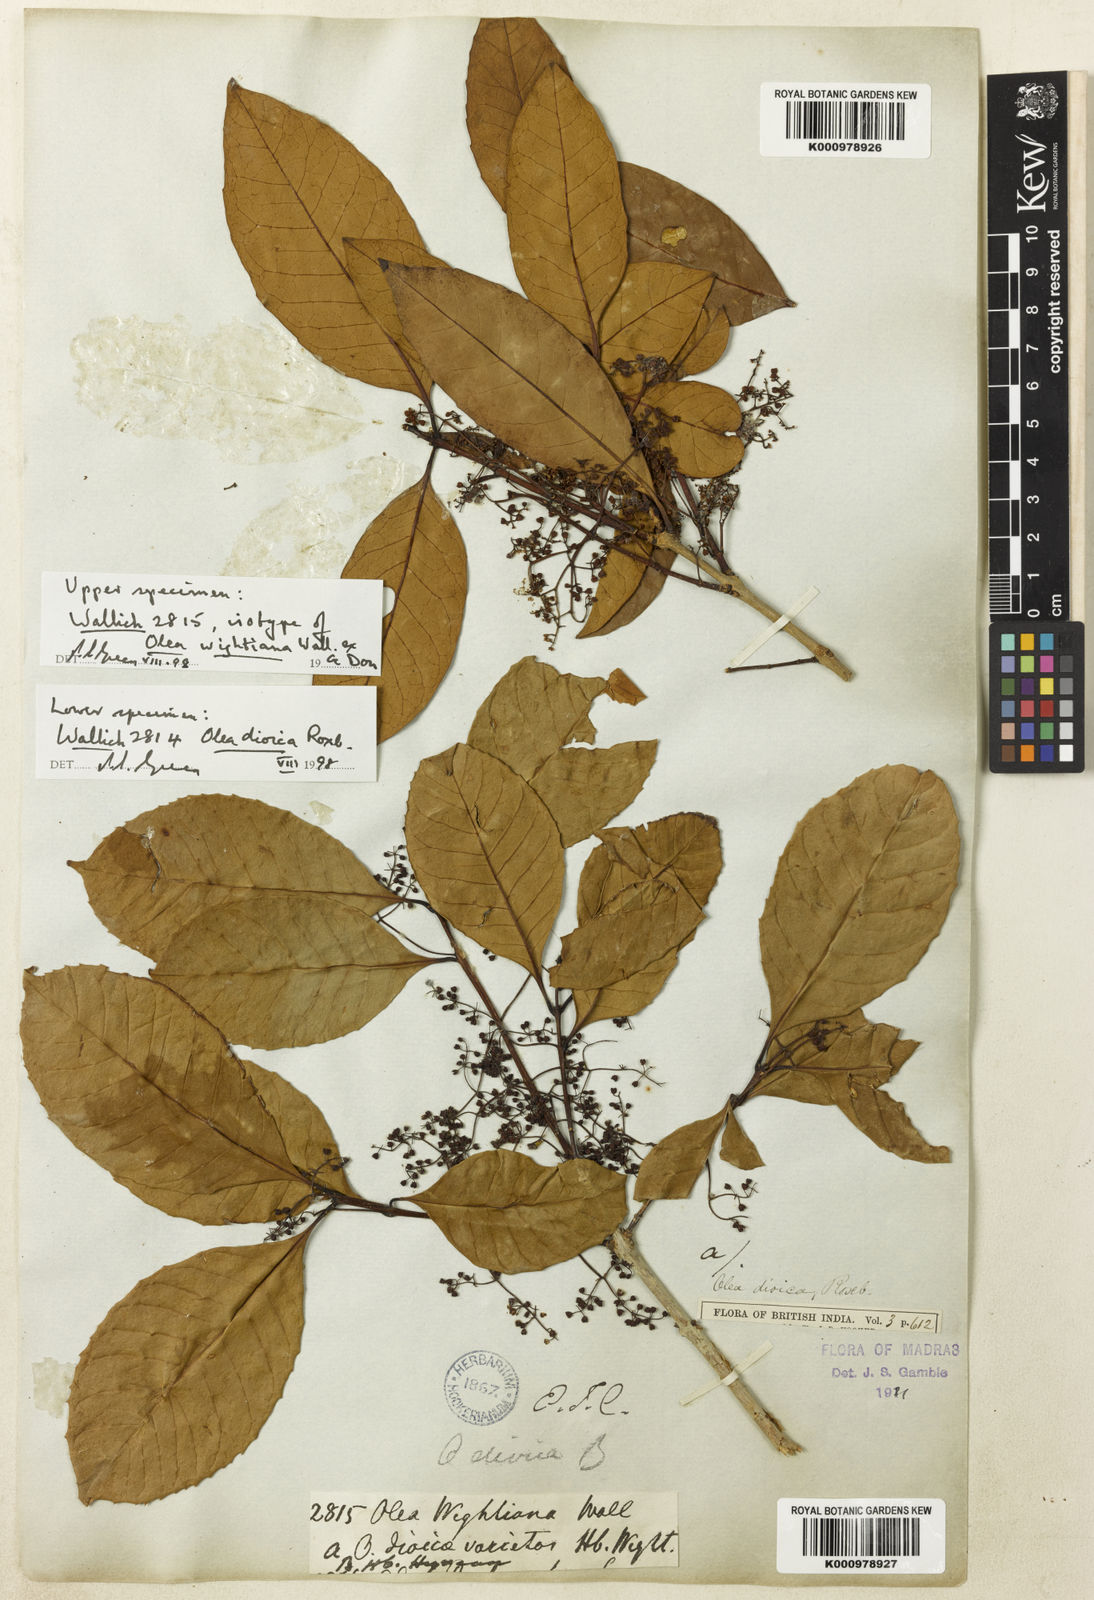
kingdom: Plantae
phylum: Tracheophyta
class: Magnoliopsida
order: Lamiales
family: Oleaceae
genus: Tetrapilus
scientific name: Tetrapilus wightianus
